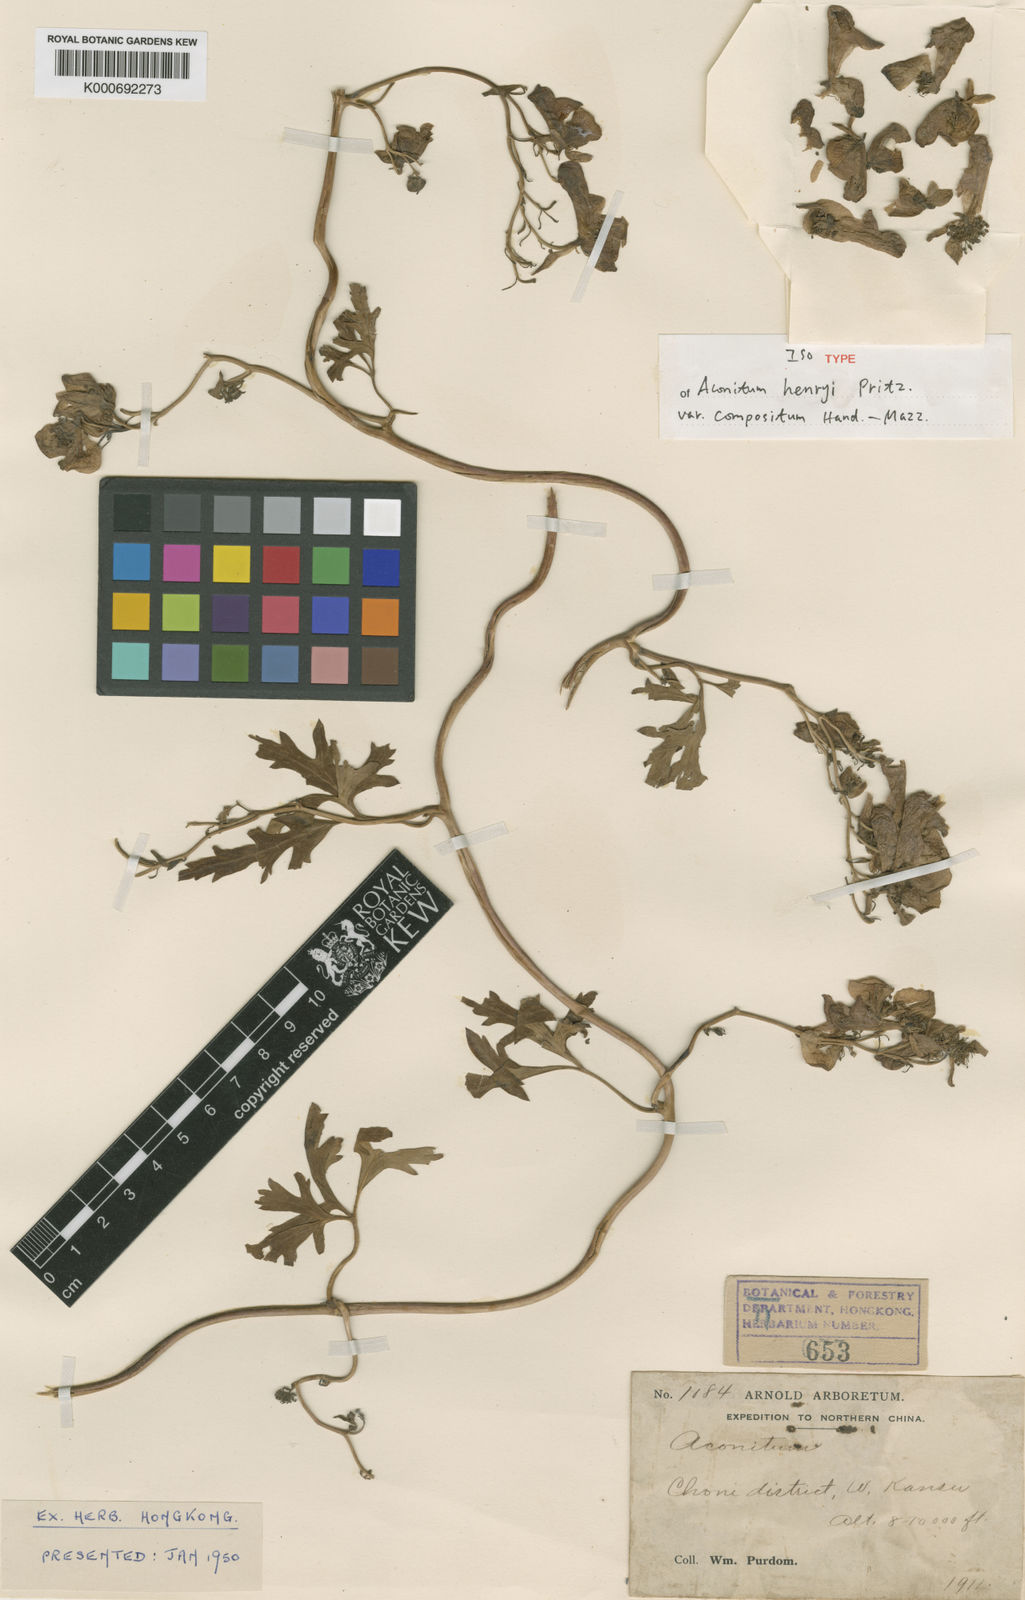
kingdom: Plantae
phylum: Tracheophyta
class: Magnoliopsida
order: Ranunculales
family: Ranunculaceae
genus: Aconitum
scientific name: Aconitum
